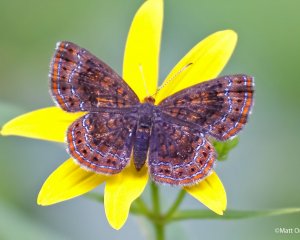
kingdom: Animalia
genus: Calephelis
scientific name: Calephelis borealis
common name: Northern Metalmark
